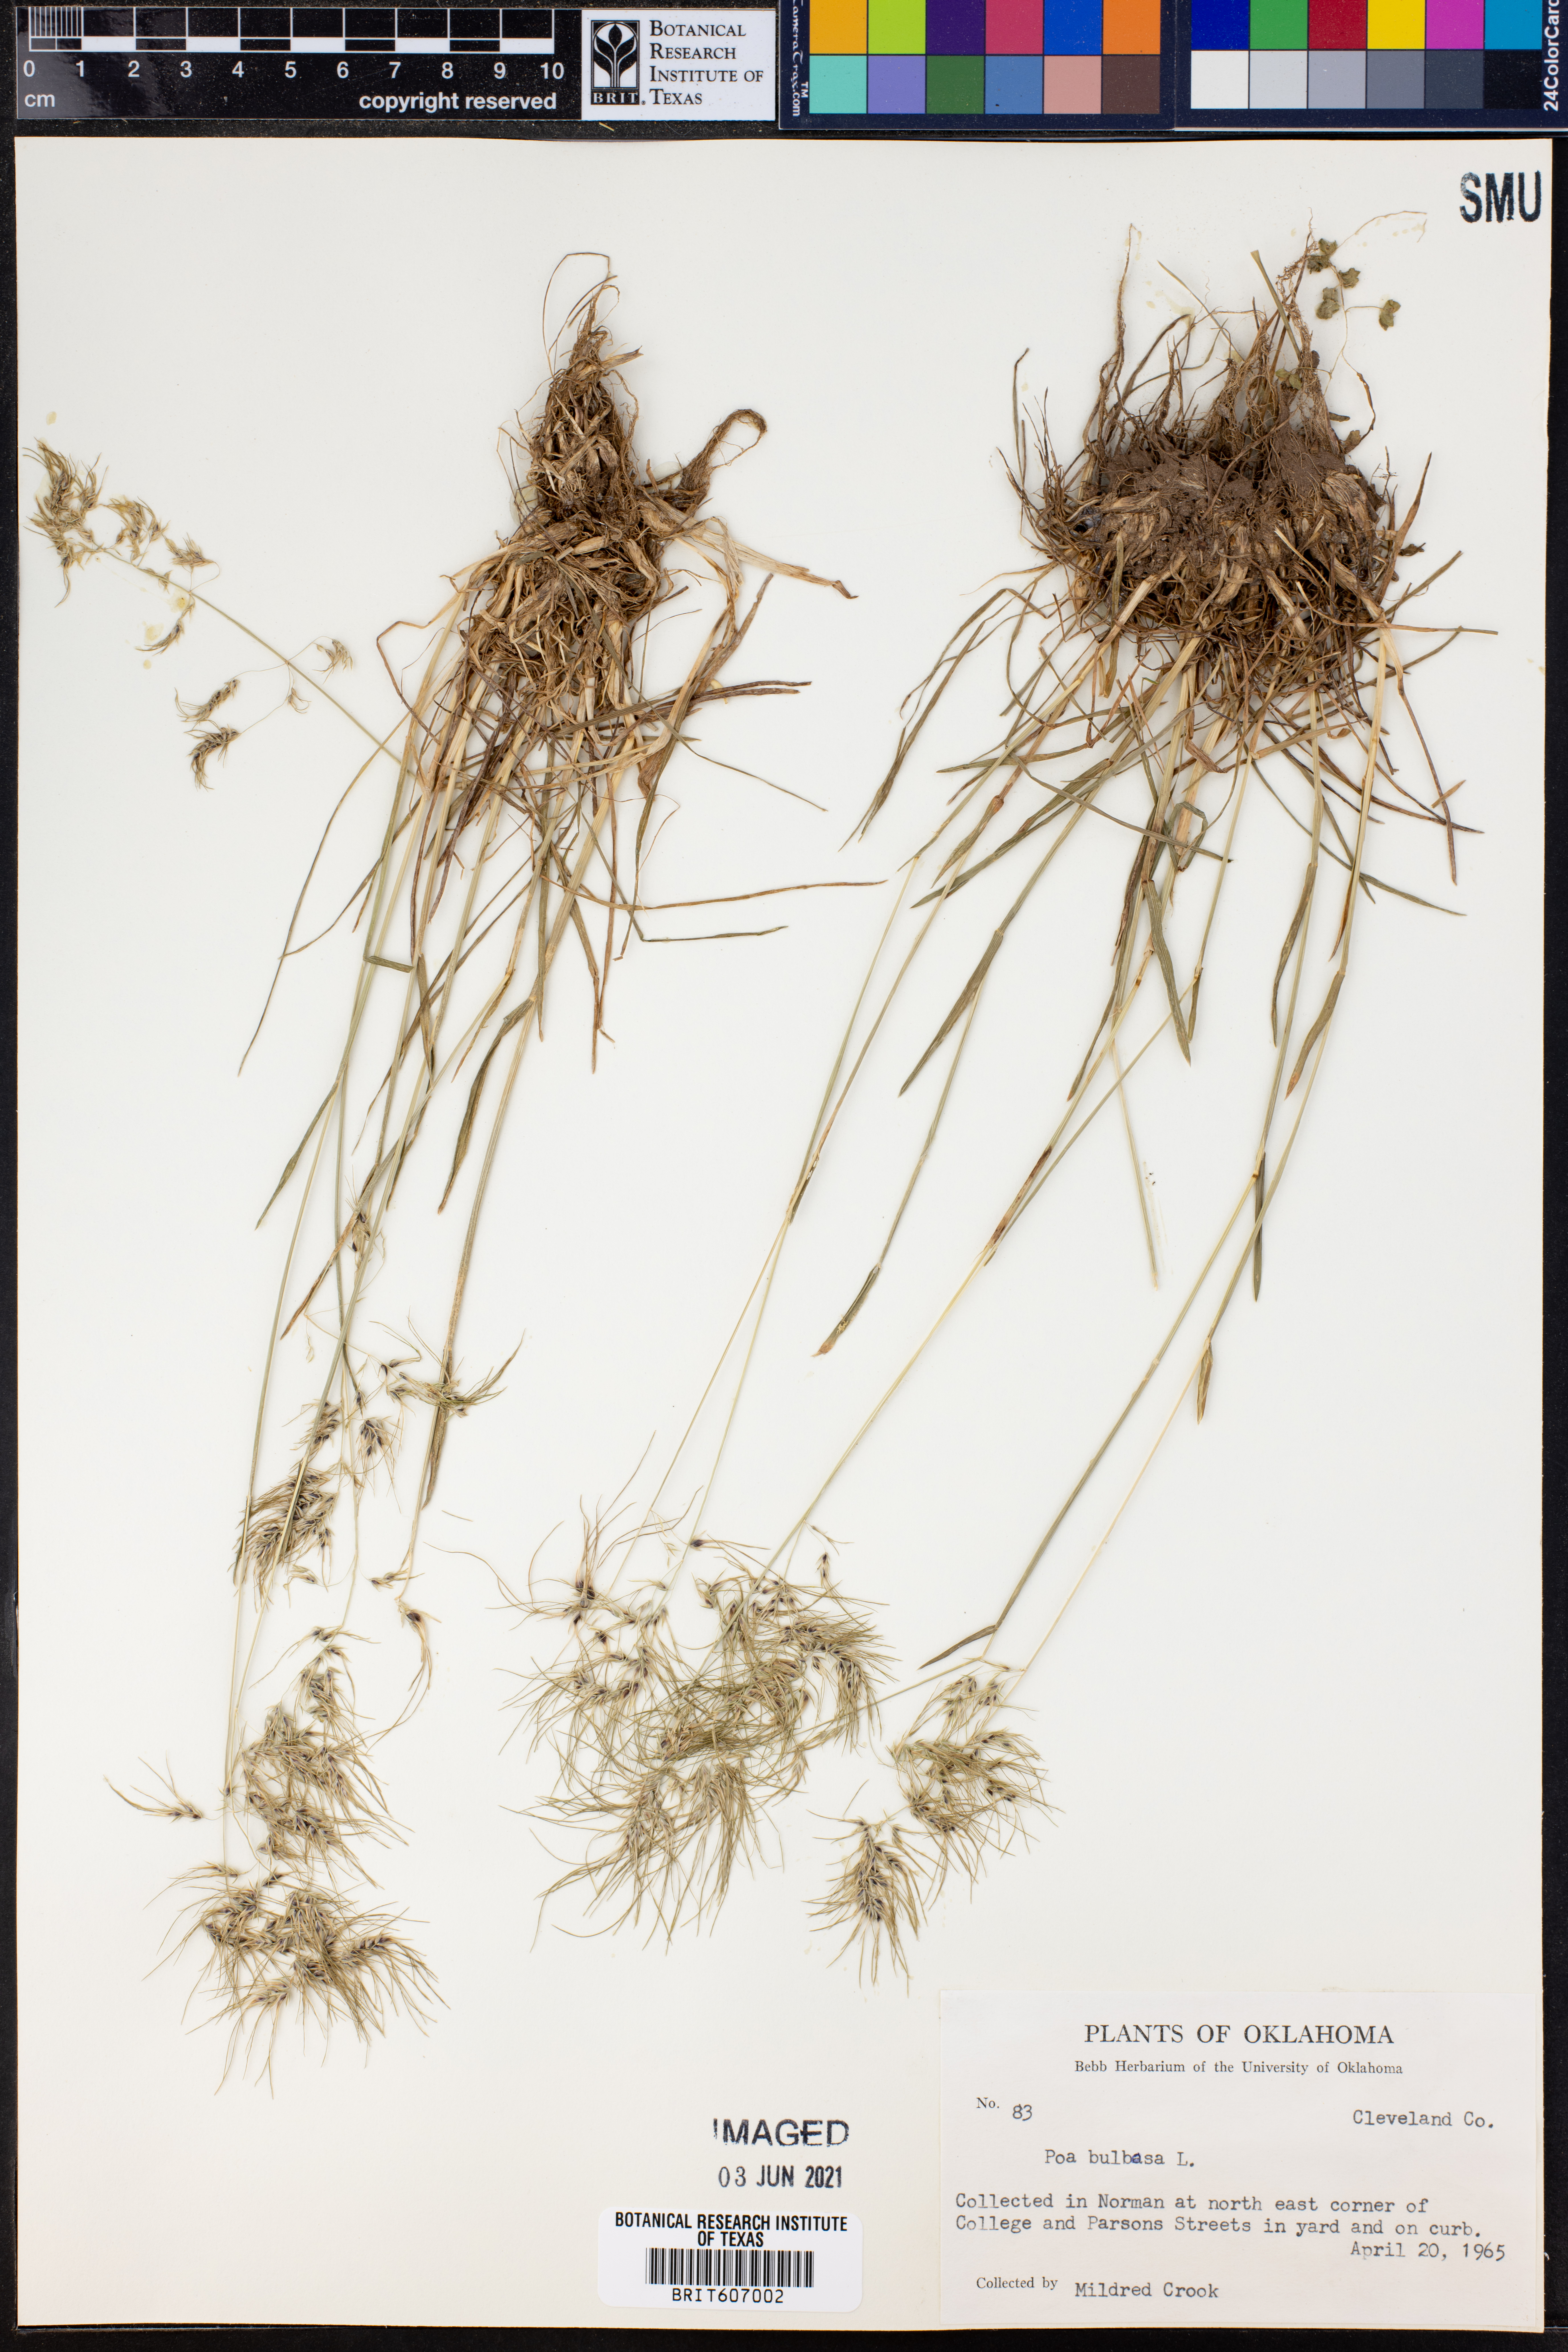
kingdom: Plantae
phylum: Tracheophyta
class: Liliopsida
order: Poales
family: Poaceae
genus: Poa
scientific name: Poa bulbosa
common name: Bulbous bluegrass
